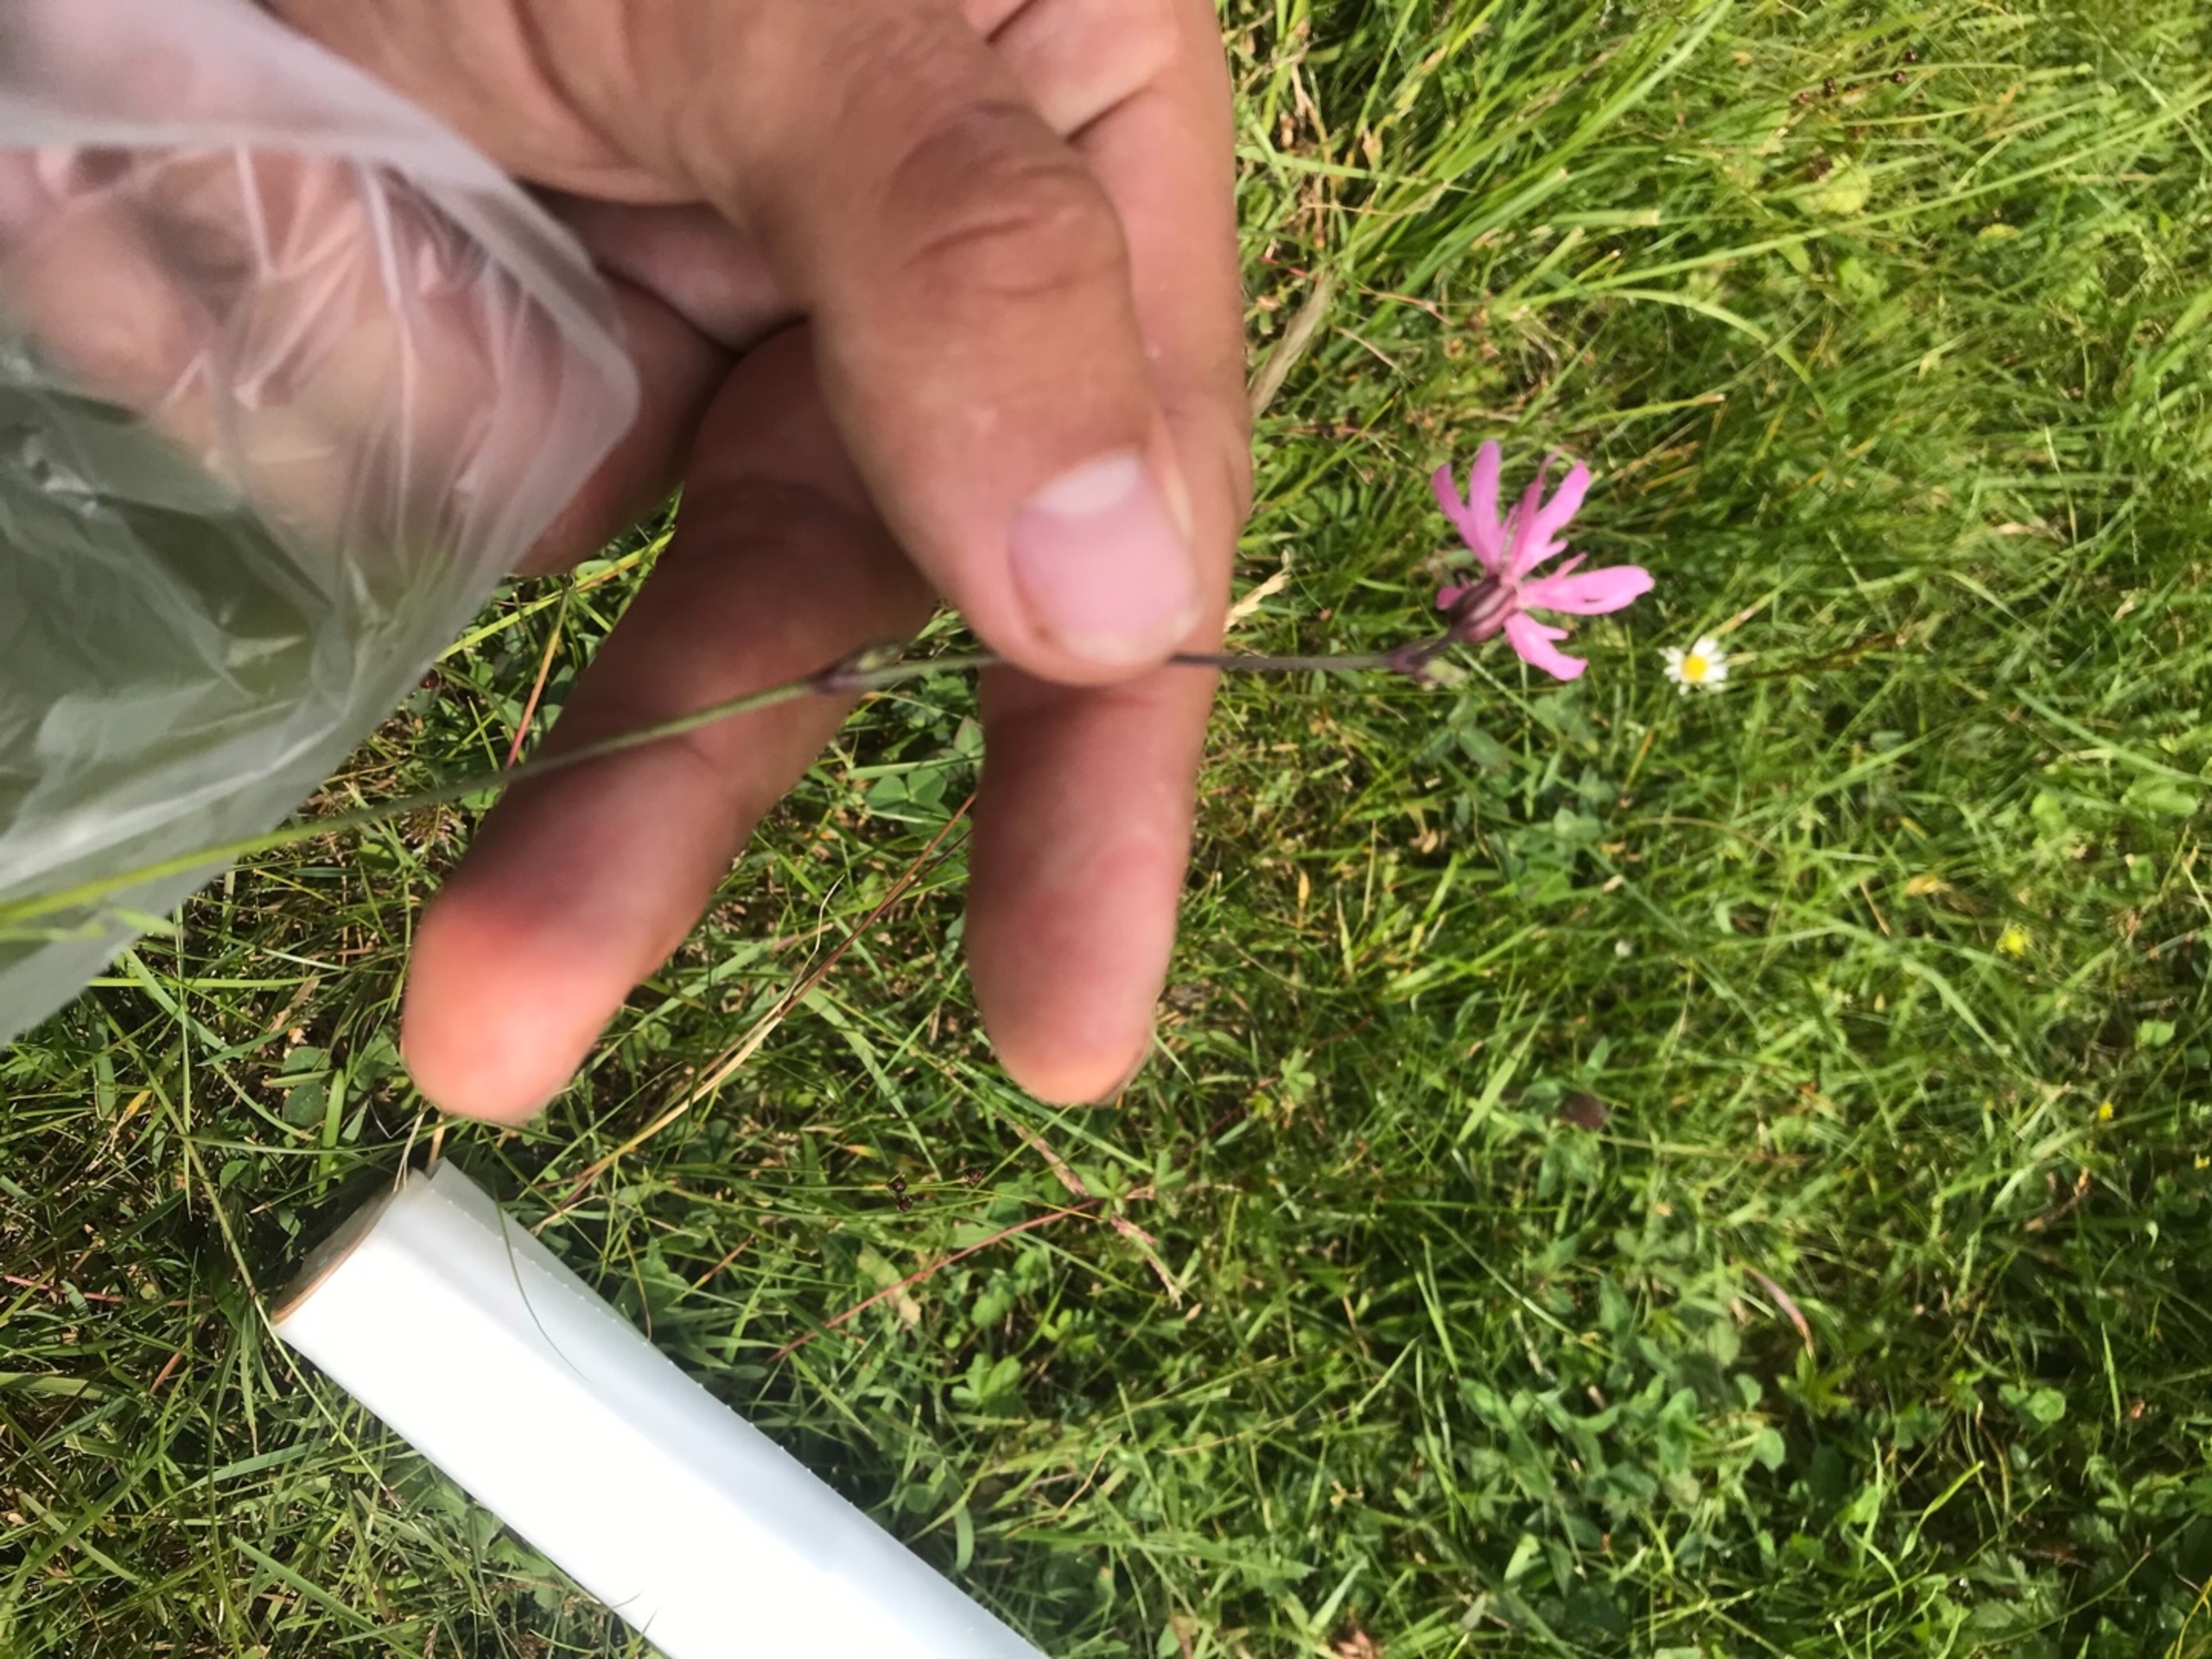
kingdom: Plantae
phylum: Tracheophyta
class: Magnoliopsida
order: Caryophyllales
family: Caryophyllaceae
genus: Silene
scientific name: Silene flos-cuculi
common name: Trævlekrone
